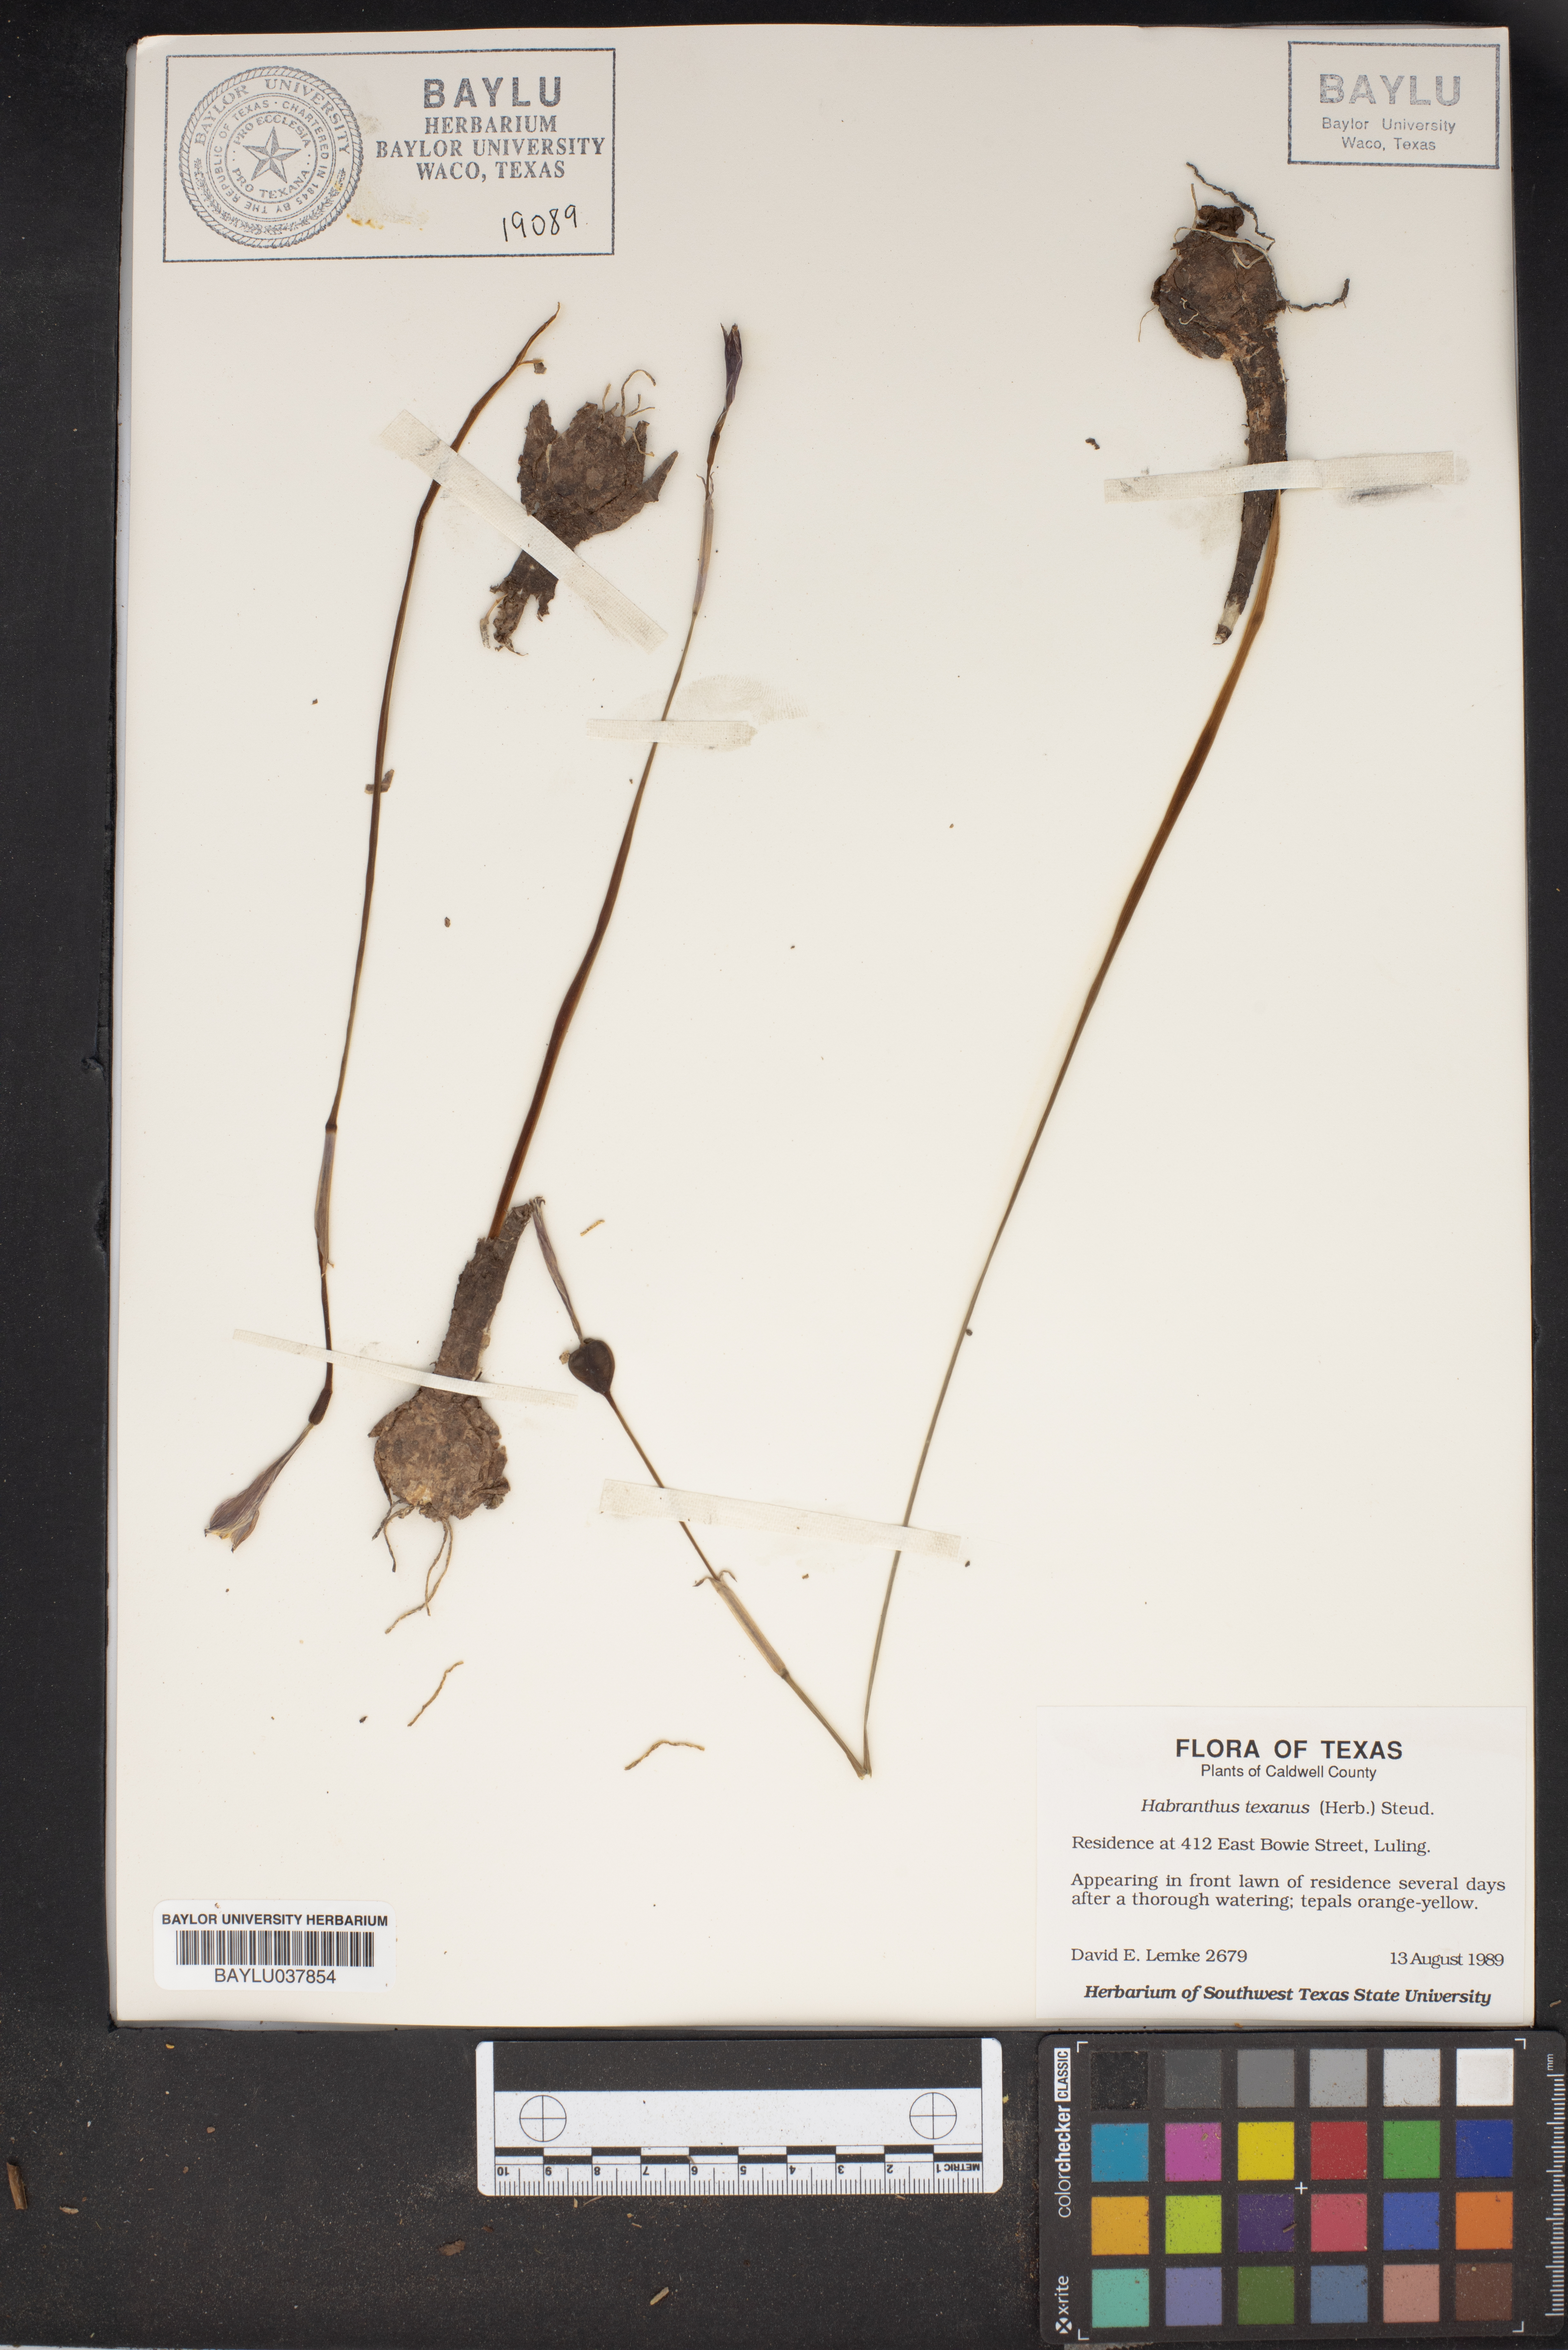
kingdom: Plantae
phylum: Tracheophyta
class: Liliopsida
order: Asparagales
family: Amaryllidaceae
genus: Zephyranthes
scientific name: Zephyranthes tubispatha
